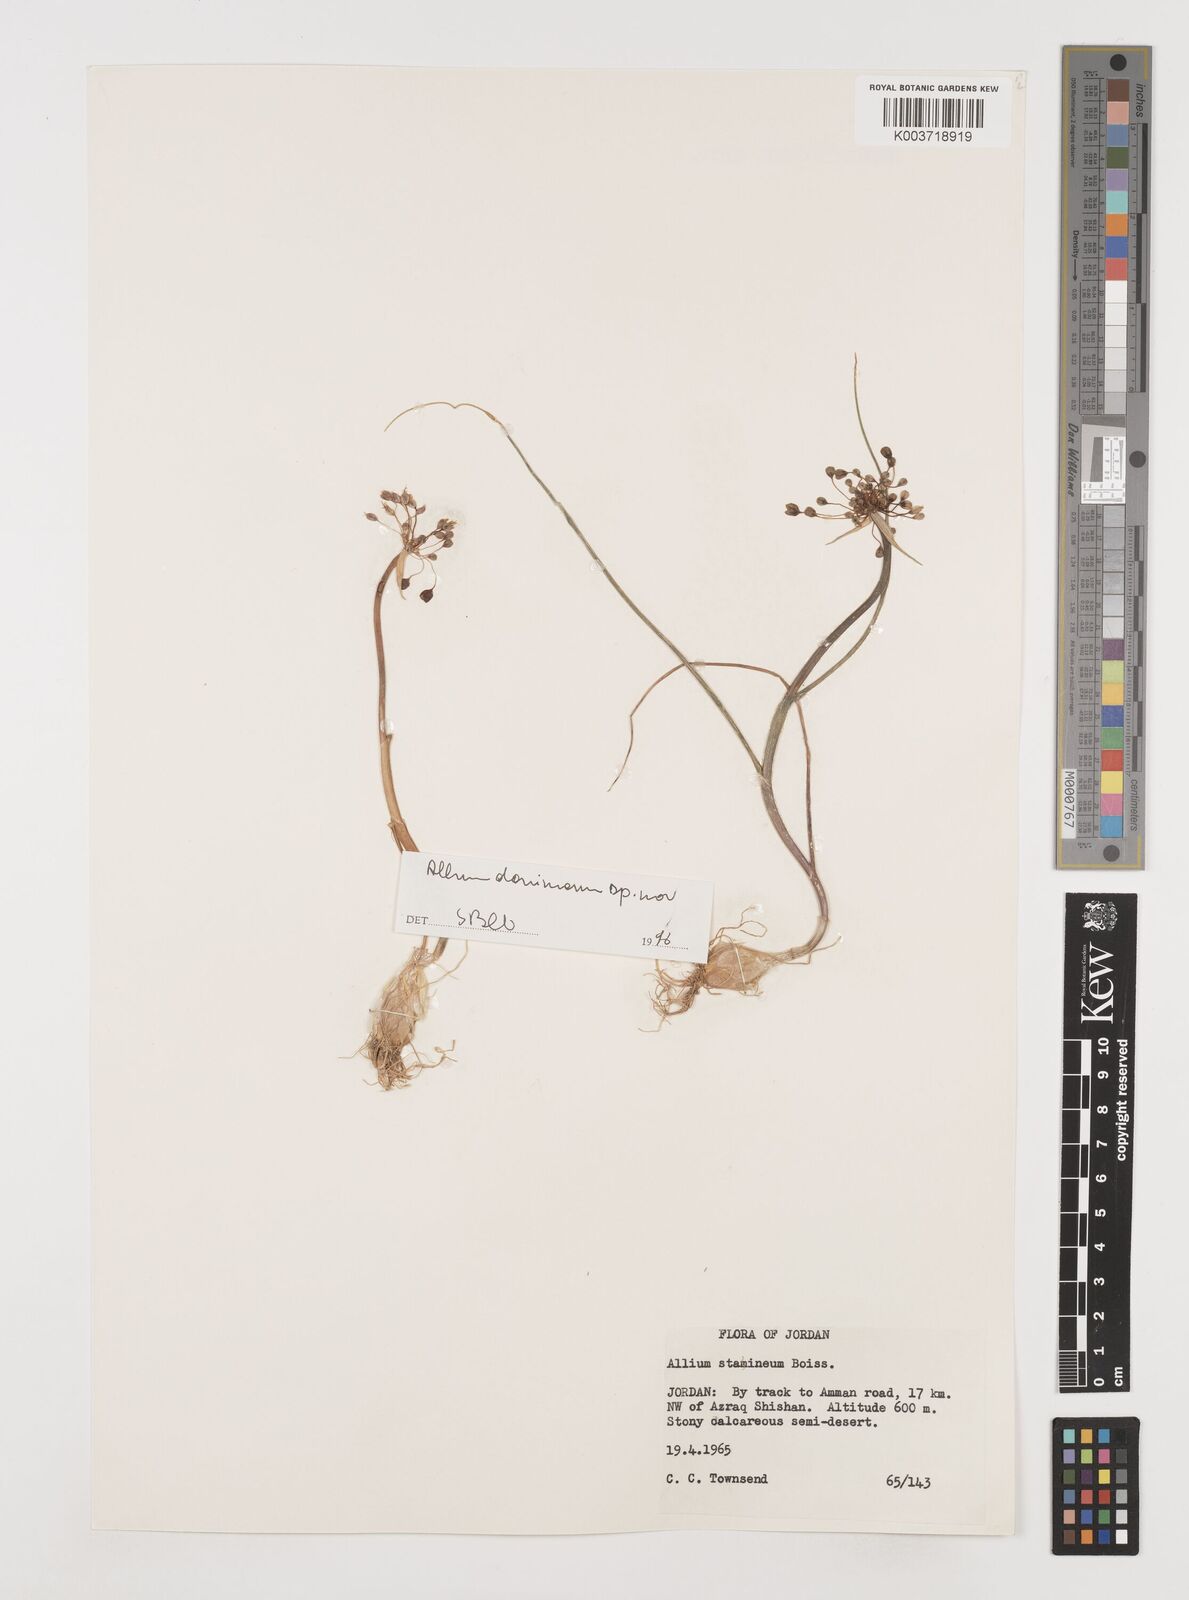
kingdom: Plantae
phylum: Tracheophyta
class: Liliopsida
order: Asparagales
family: Amaryllidaceae
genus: Allium
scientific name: Allium stamineum
